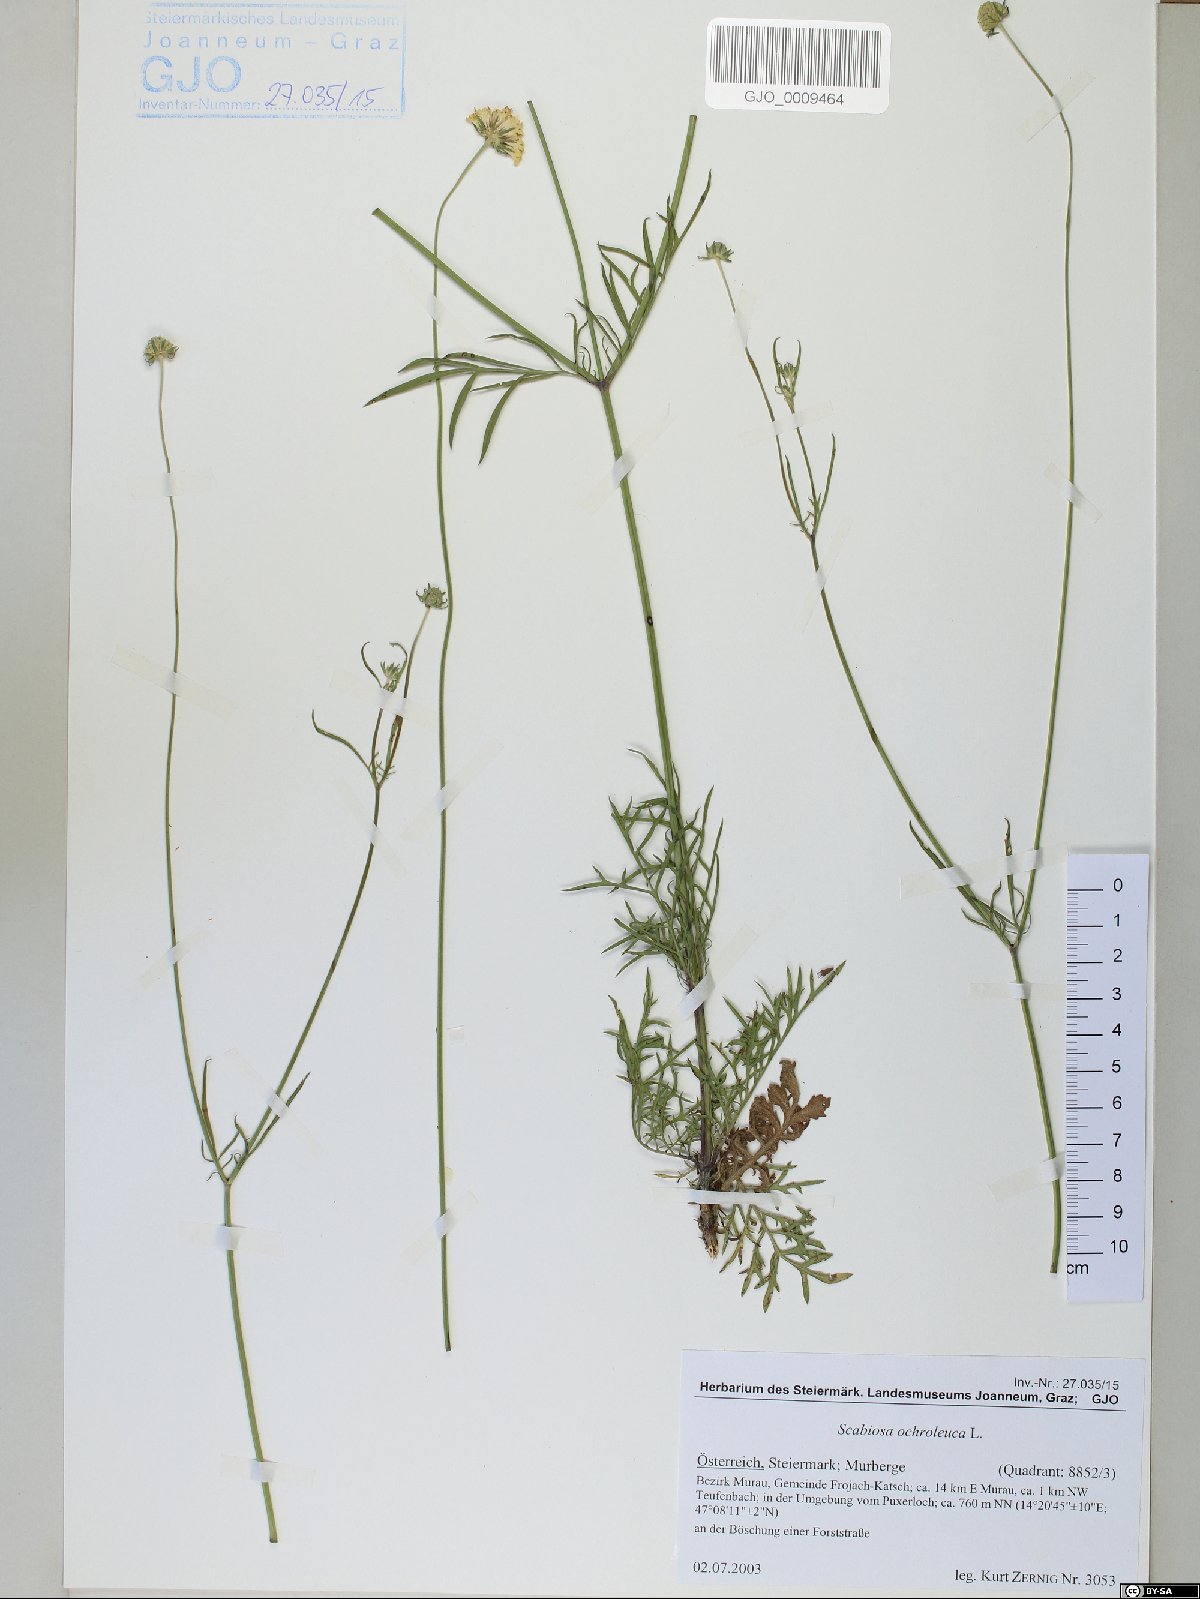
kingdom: Plantae
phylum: Tracheophyta
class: Magnoliopsida
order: Dipsacales
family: Caprifoliaceae
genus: Scabiosa
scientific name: Scabiosa ochroleuca
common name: Cream pincushions
